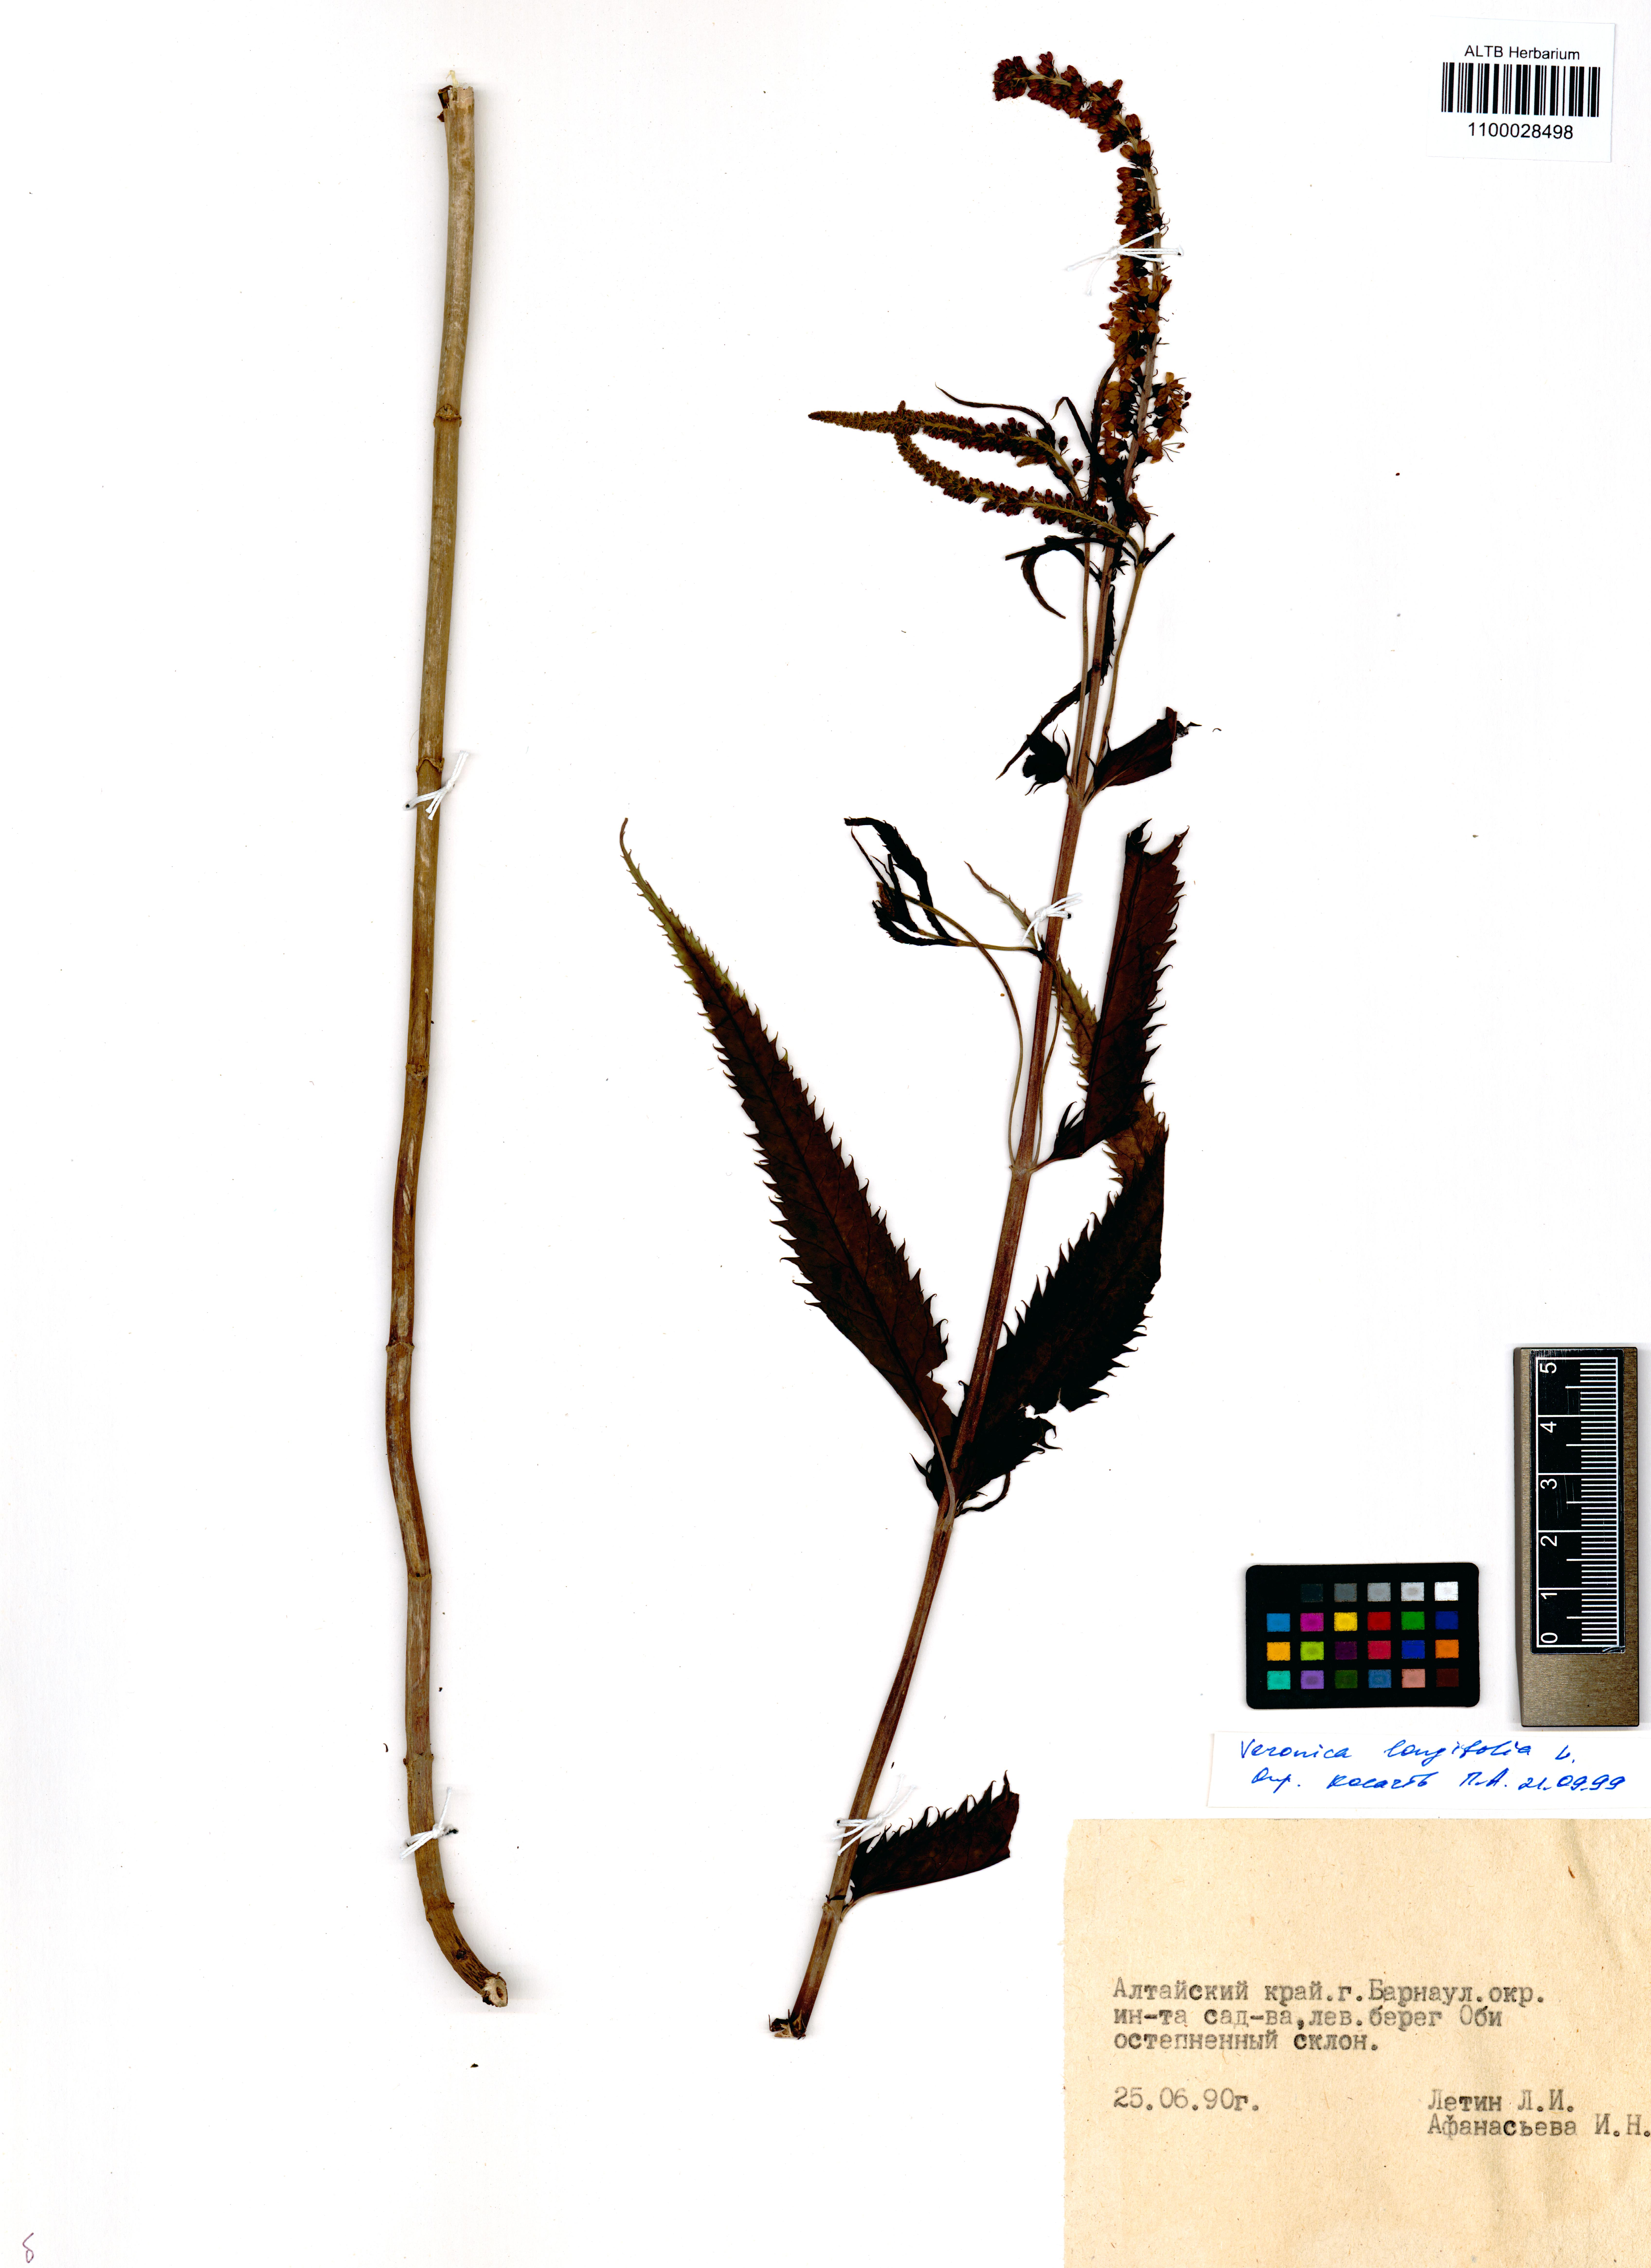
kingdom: Plantae
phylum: Tracheophyta
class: Magnoliopsida
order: Lamiales
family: Plantaginaceae
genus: Veronica
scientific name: Veronica longifolia
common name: Garden speedwell
